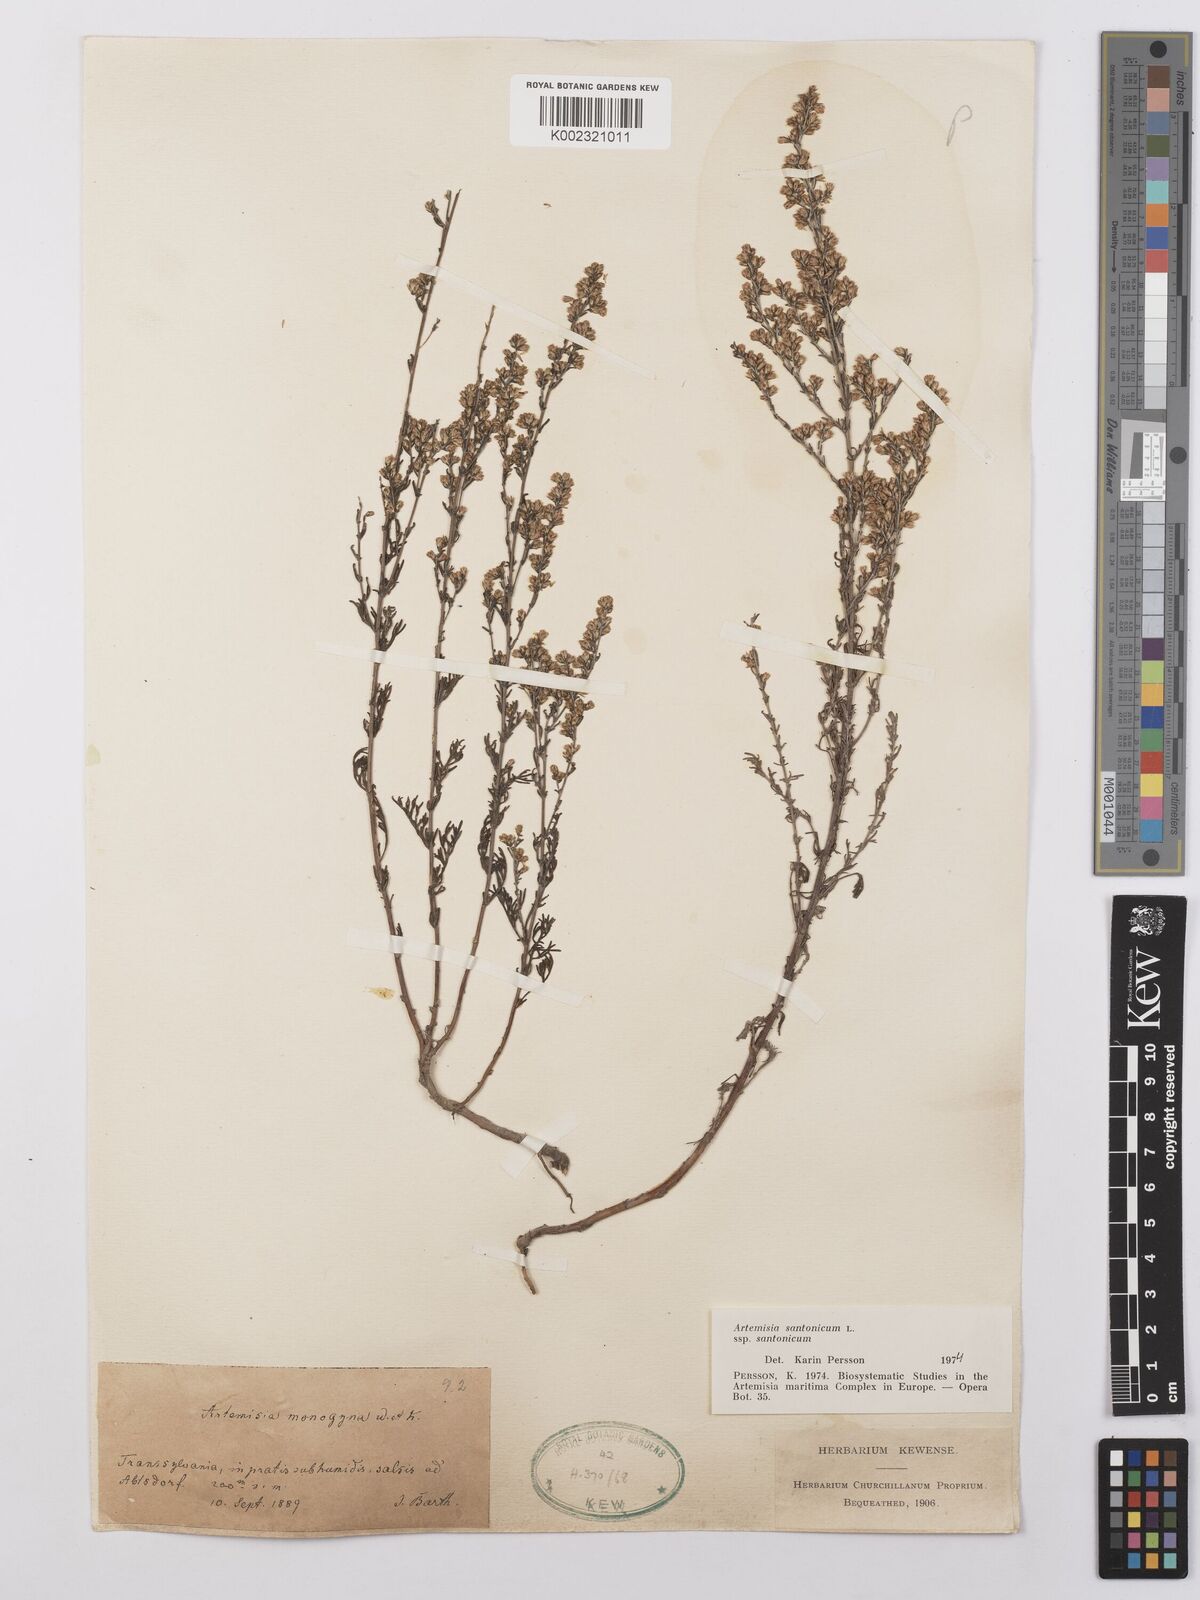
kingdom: Plantae
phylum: Tracheophyta
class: Magnoliopsida
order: Asterales
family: Asteraceae
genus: Artemisia
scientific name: Artemisia santonicum
